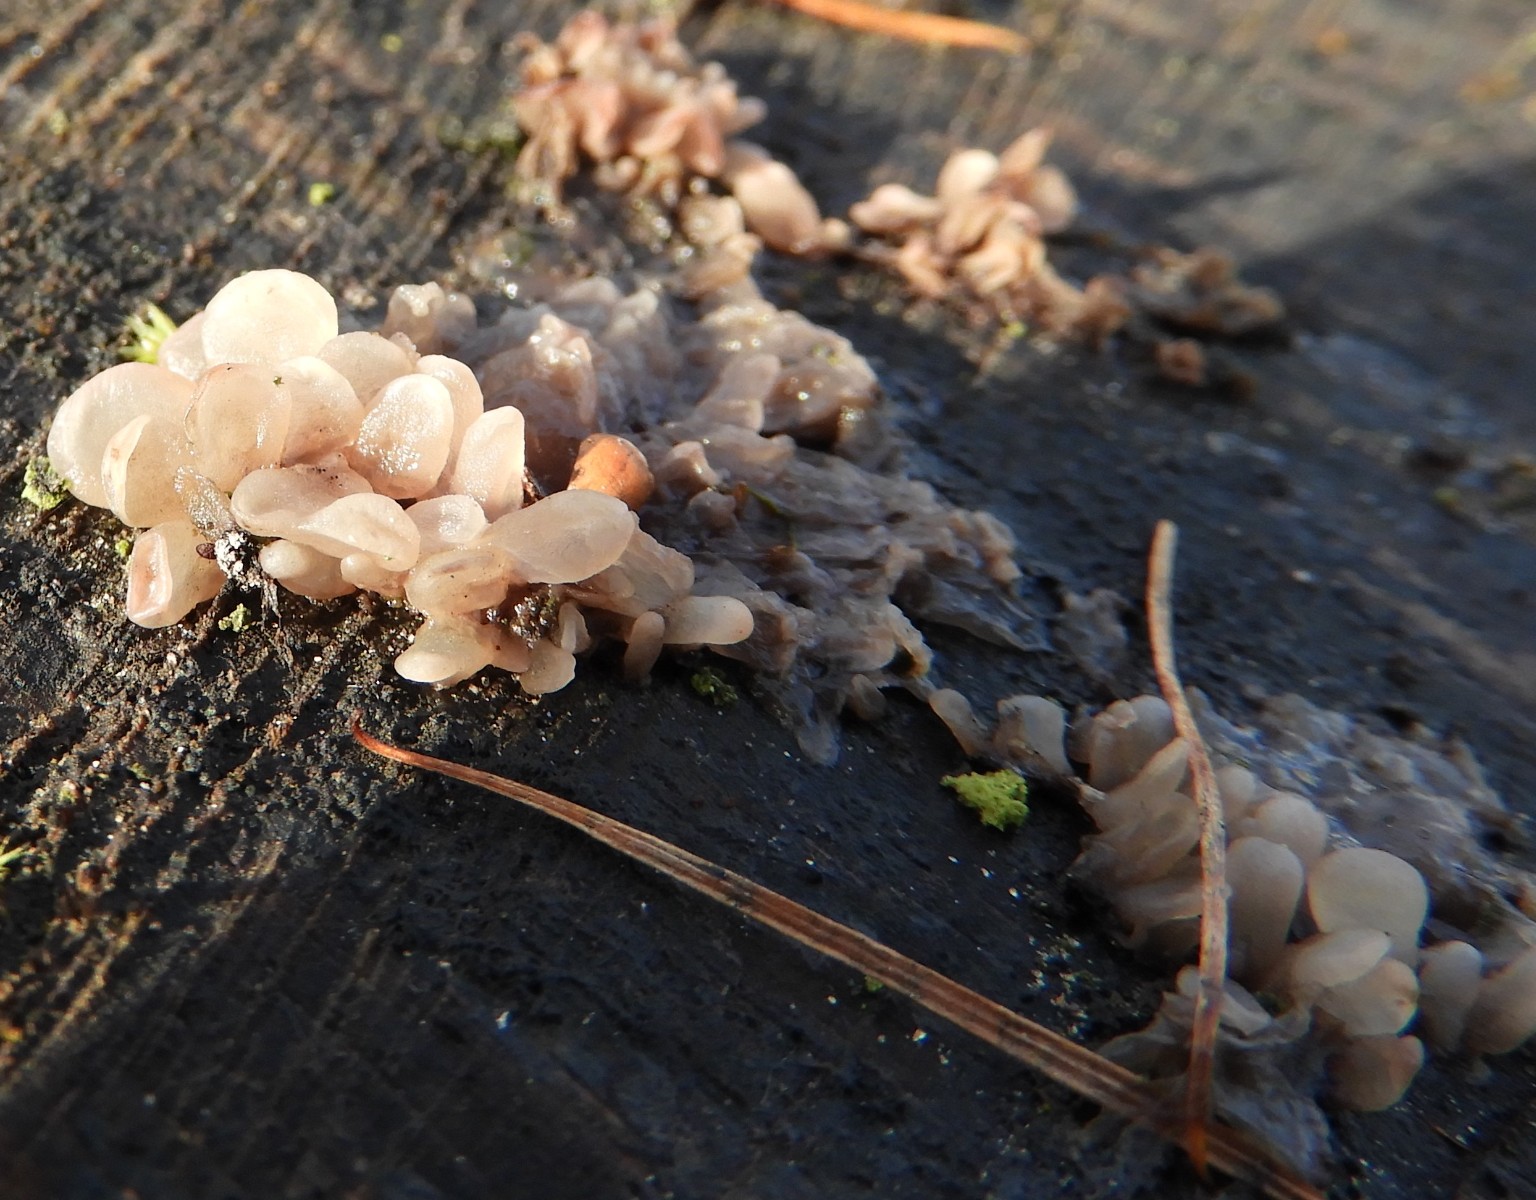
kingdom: Fungi
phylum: Ascomycota
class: Leotiomycetes
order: Helotiales
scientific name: Helotiales
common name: stilkskiveordenen
